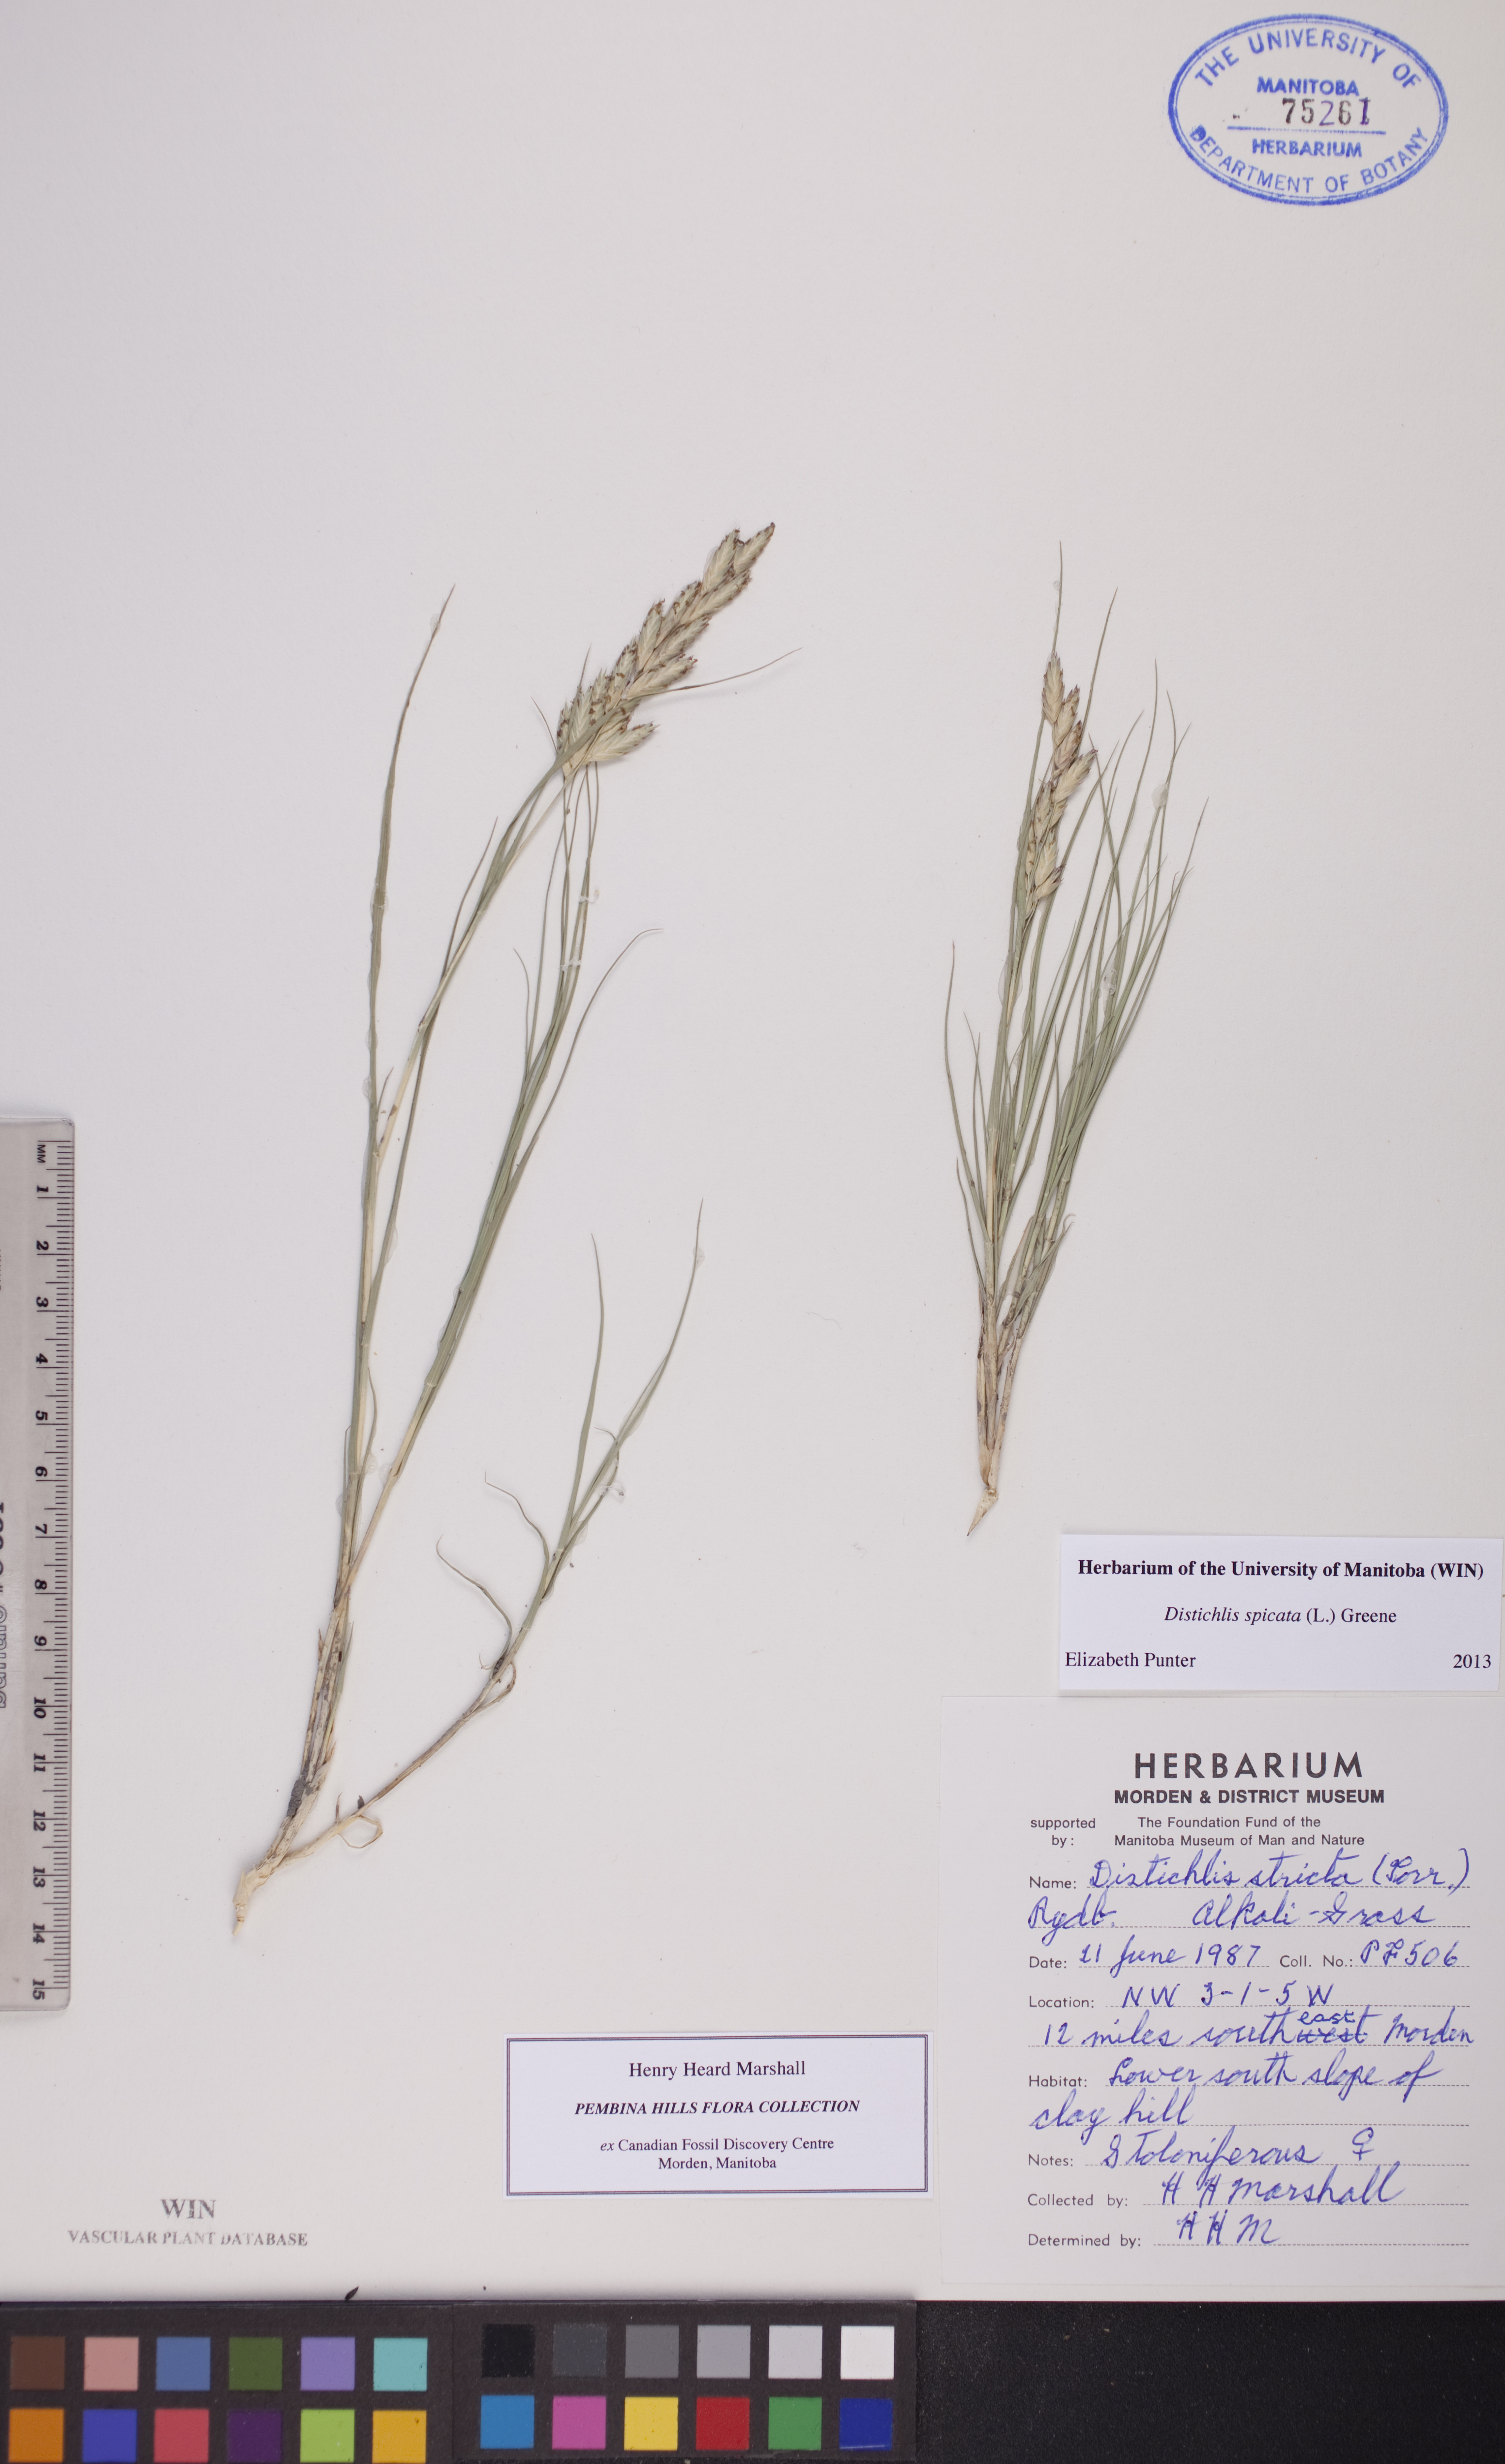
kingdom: Plantae
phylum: Tracheophyta
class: Liliopsida
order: Poales
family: Poaceae
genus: Distichlis
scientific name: Distichlis spicata
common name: Saltgrass
